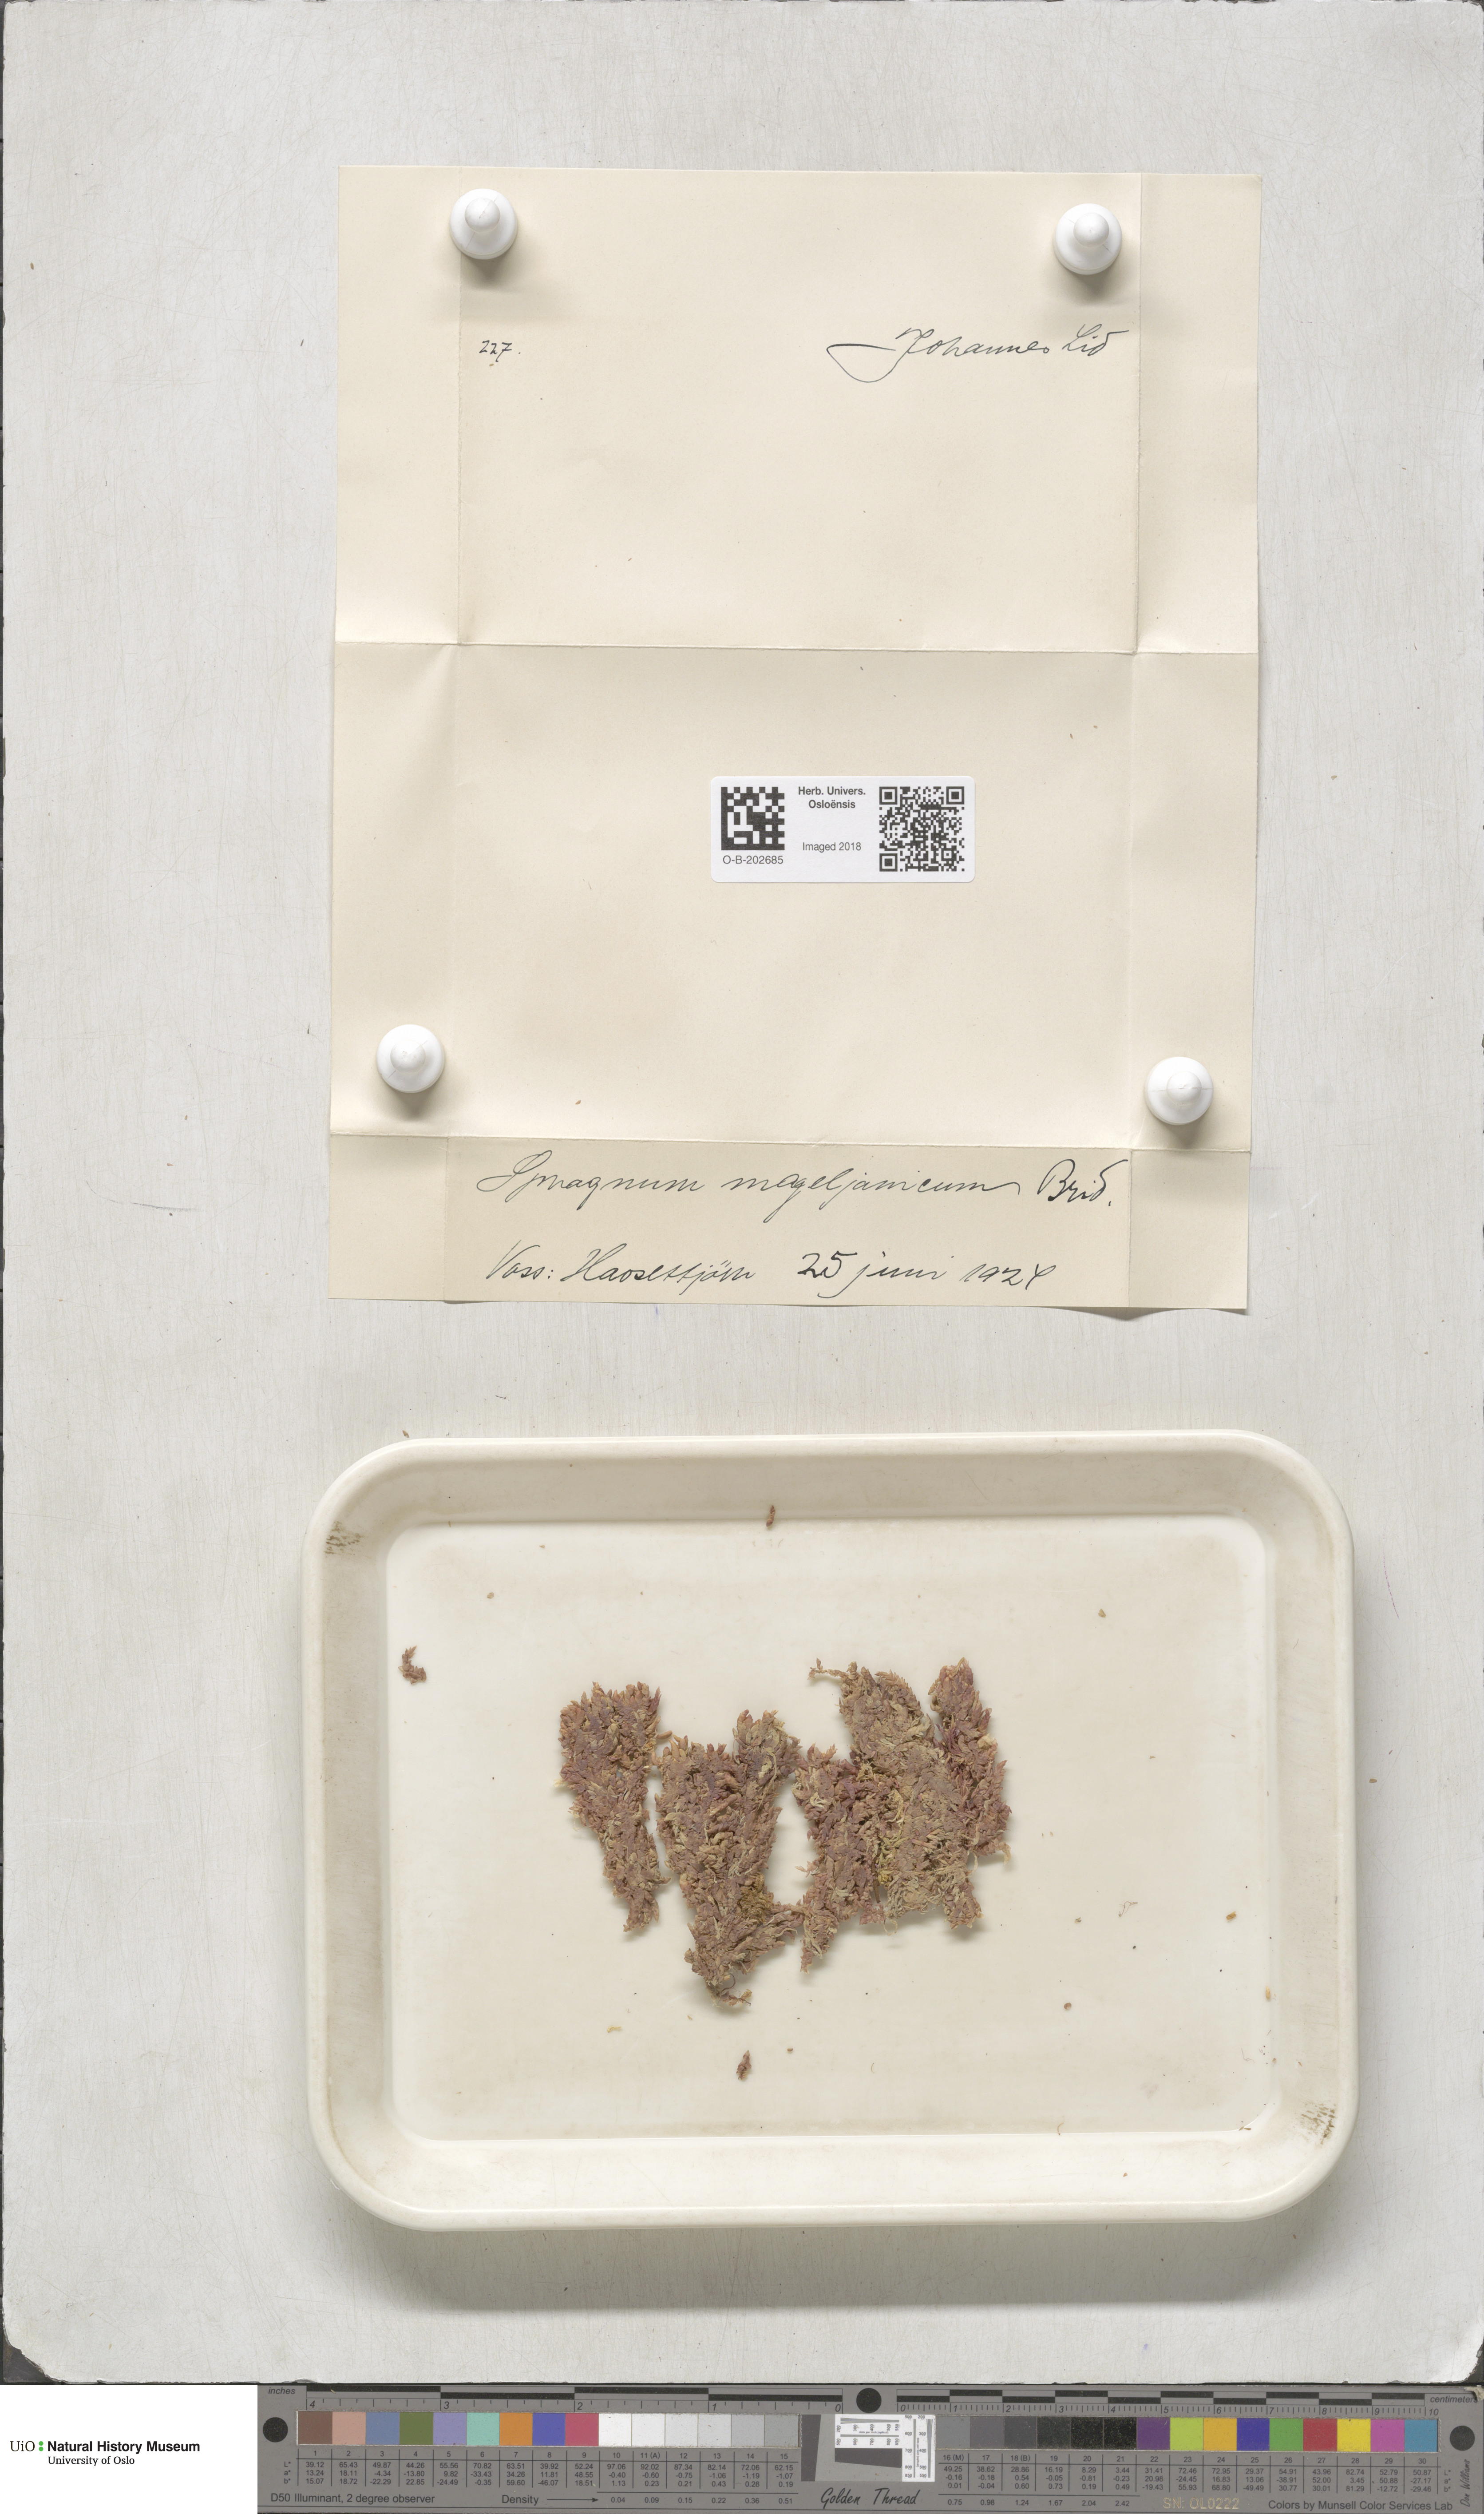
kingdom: Plantae
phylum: Bryophyta
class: Sphagnopsida
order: Sphagnales
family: Sphagnaceae
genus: Sphagnum
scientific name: Sphagnum magellanicum
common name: Magellan's peat moss
